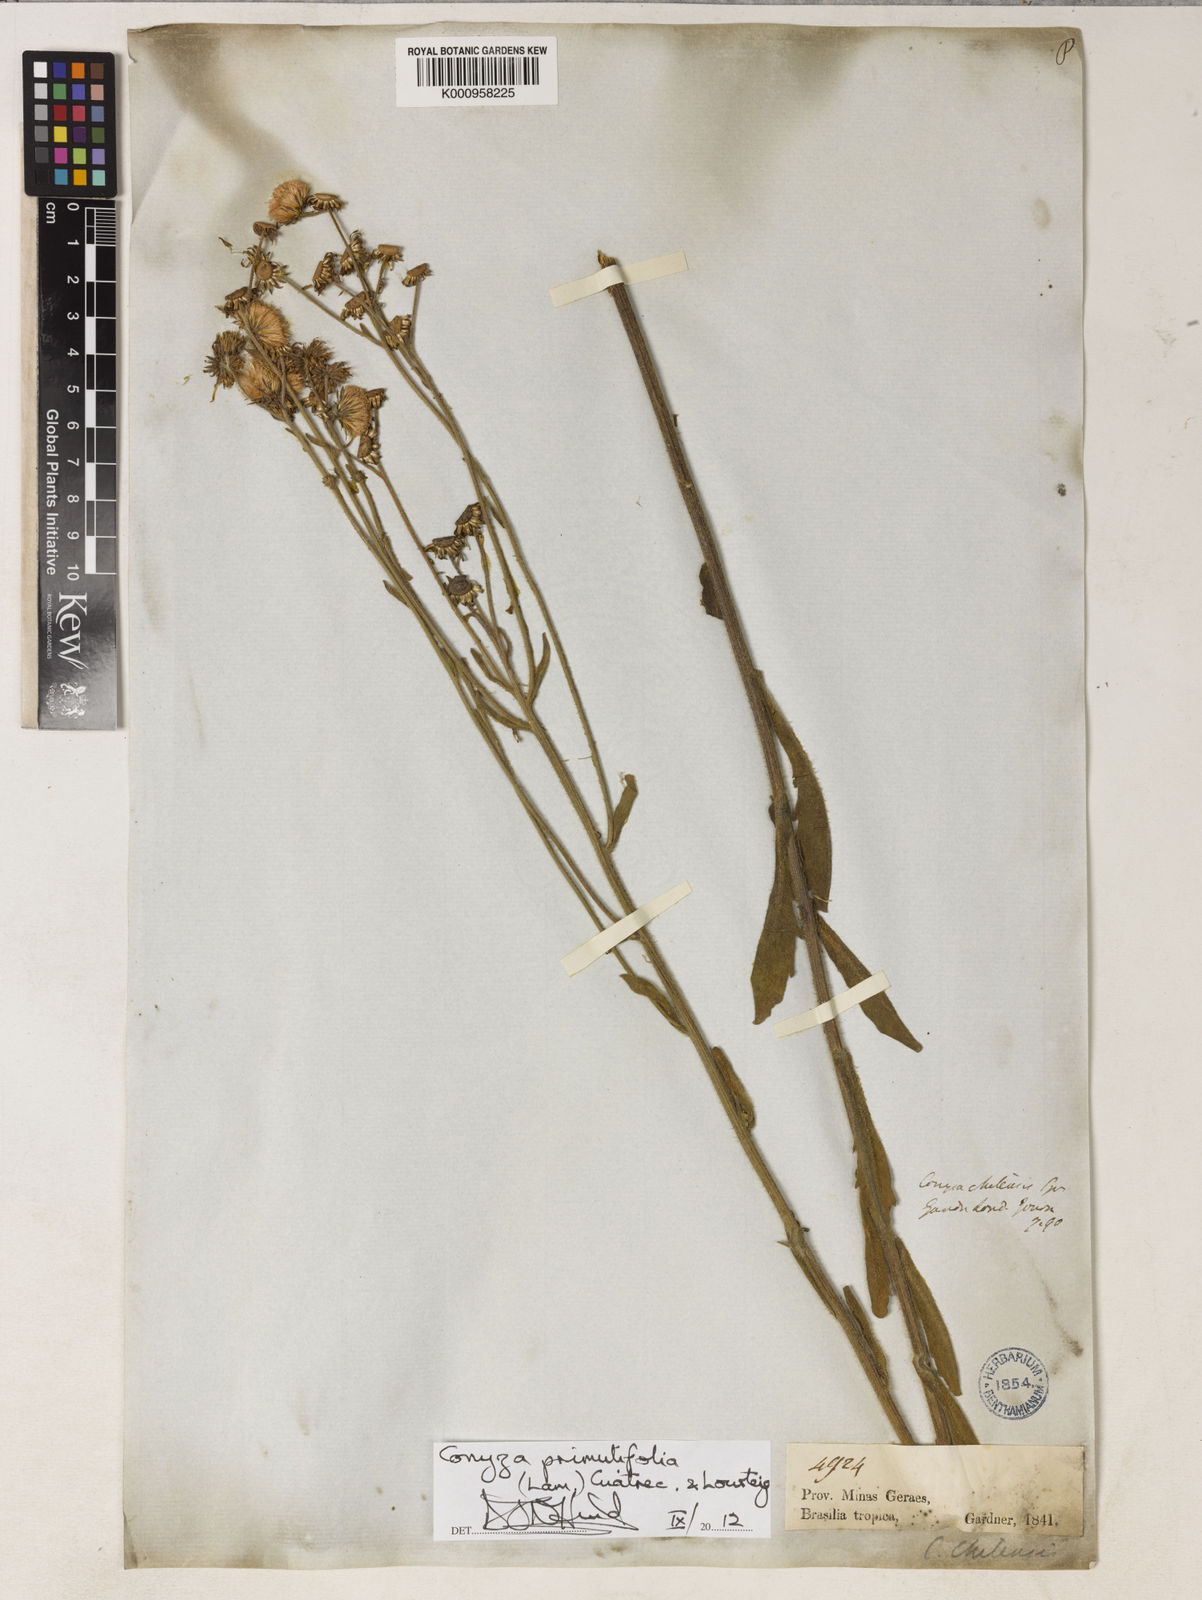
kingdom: Plantae
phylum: Tracheophyta
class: Magnoliopsida
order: Asterales
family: Asteraceae
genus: Erigeron
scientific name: Erigeron primulifolius
